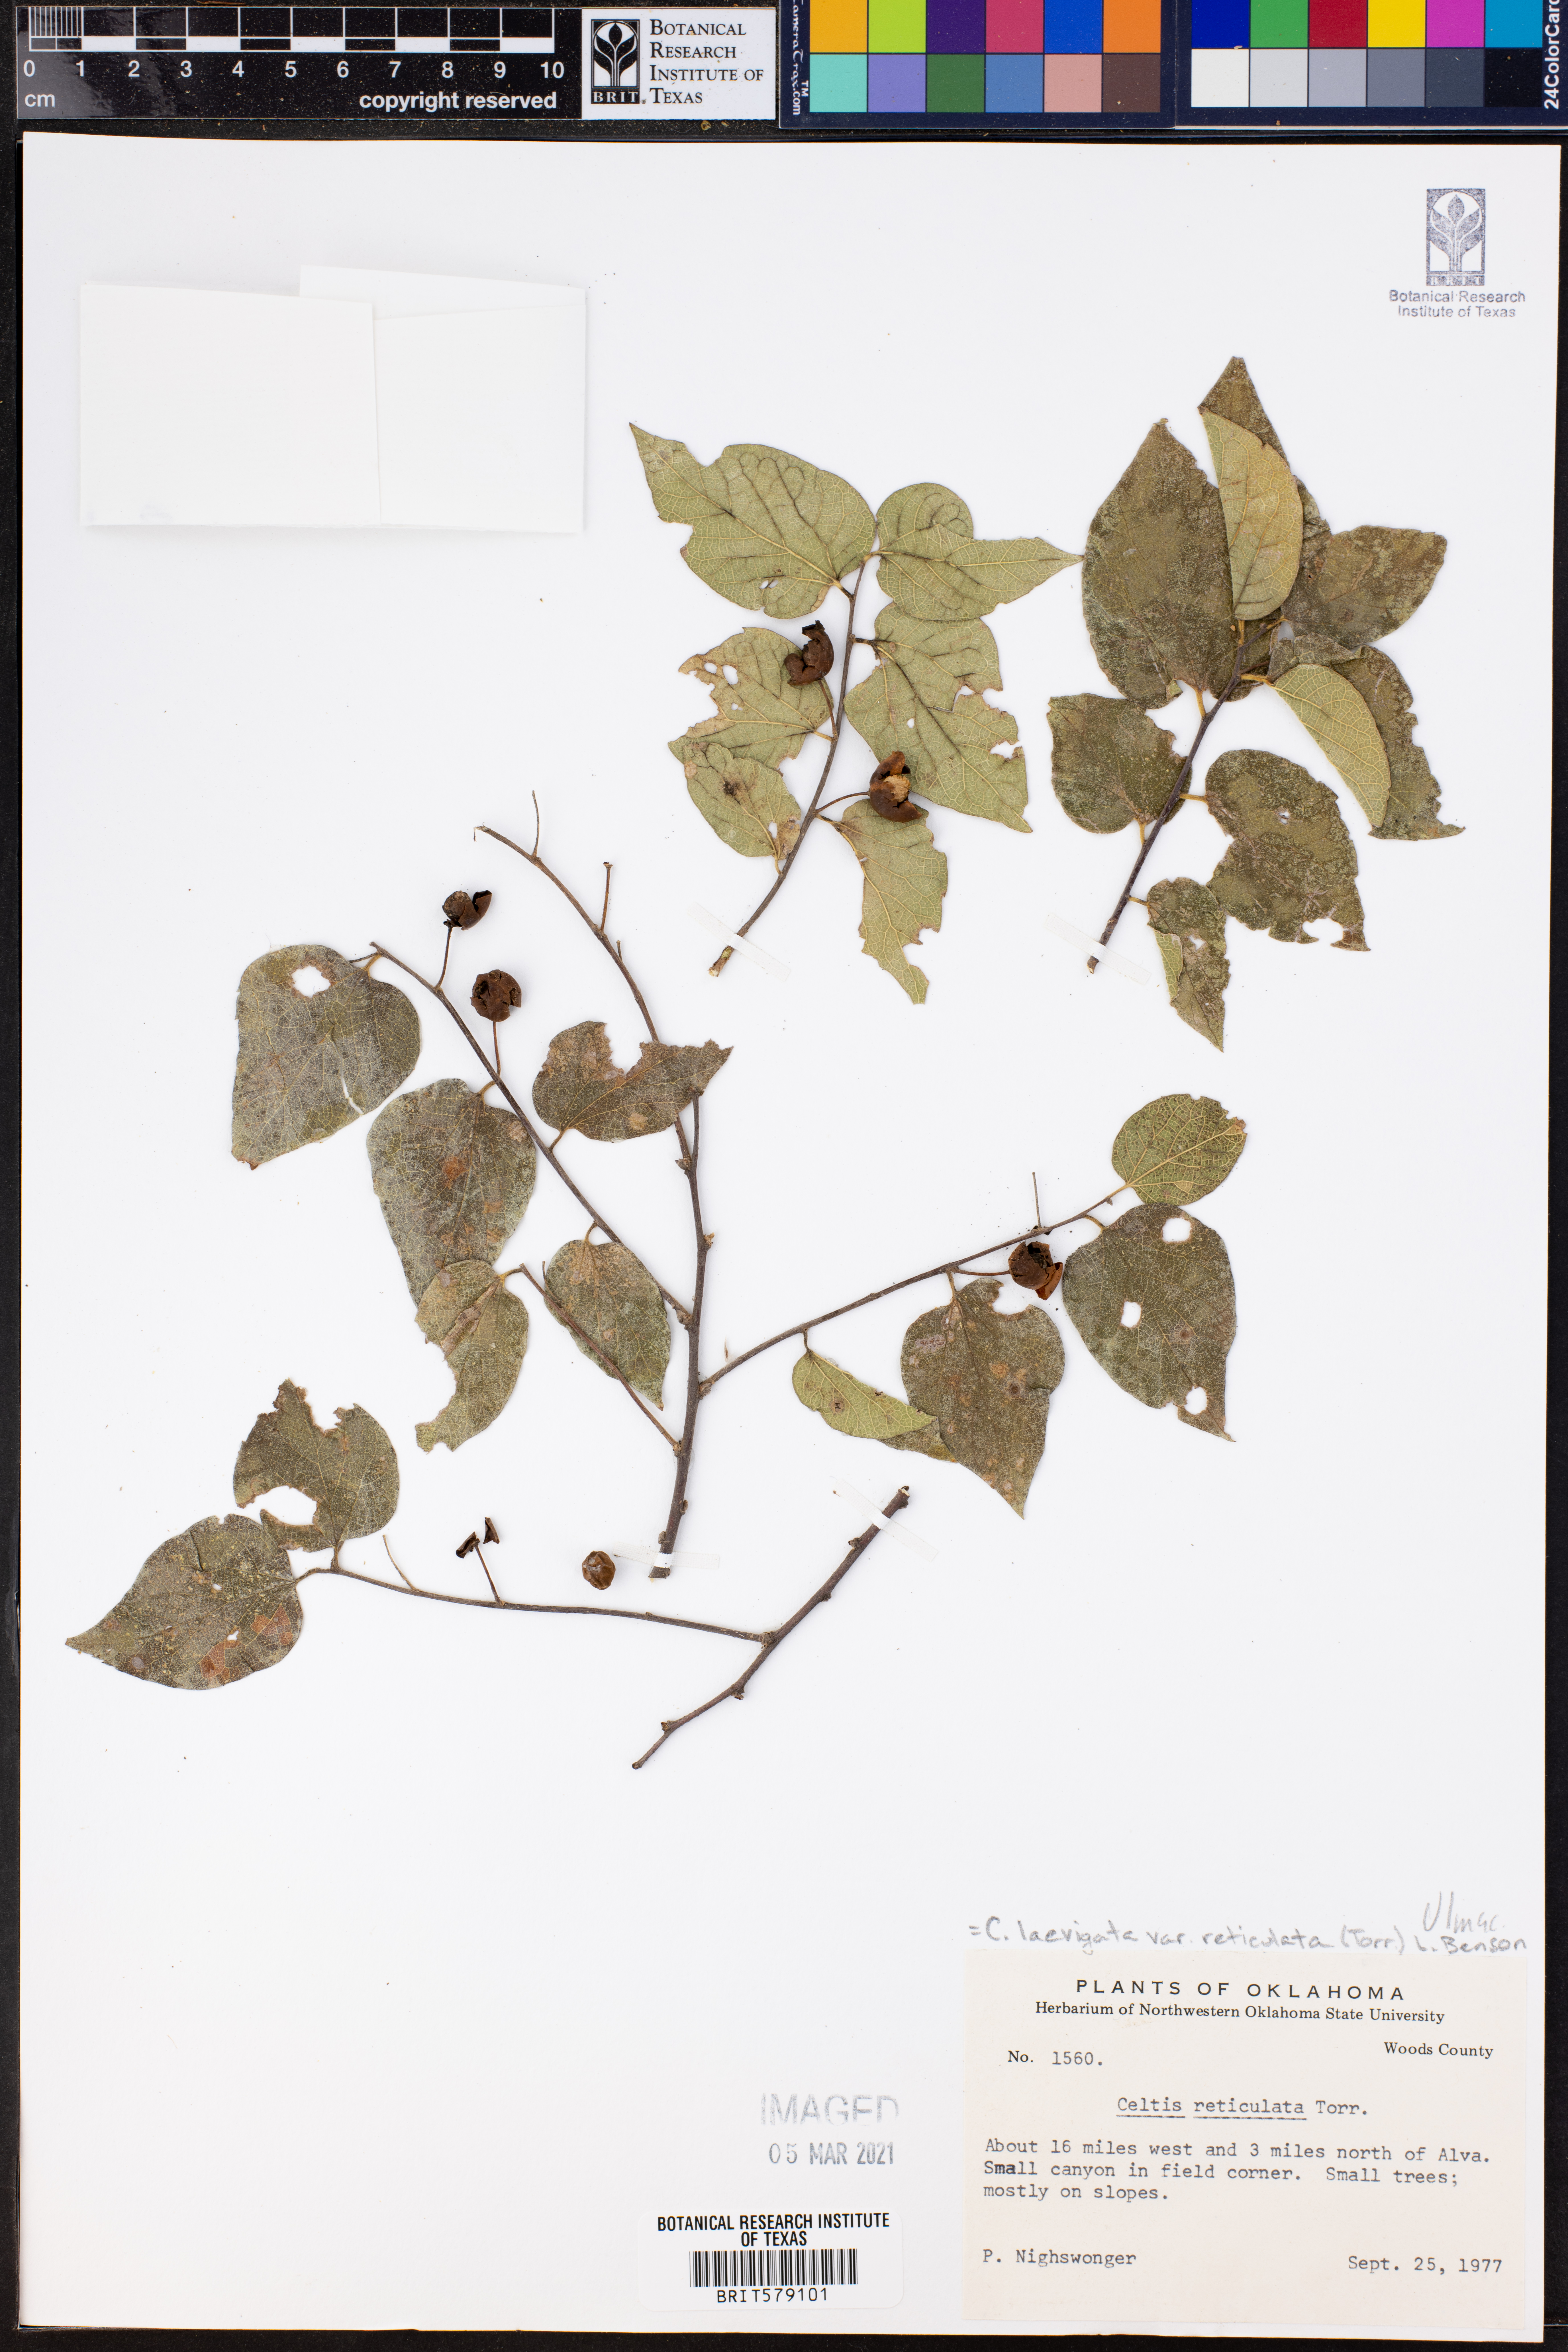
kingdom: Plantae
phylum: Tracheophyta
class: Magnoliopsida
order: Rosales
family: Cannabaceae
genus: Celtis
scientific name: Celtis reticulata
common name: Netleaf hackberry
